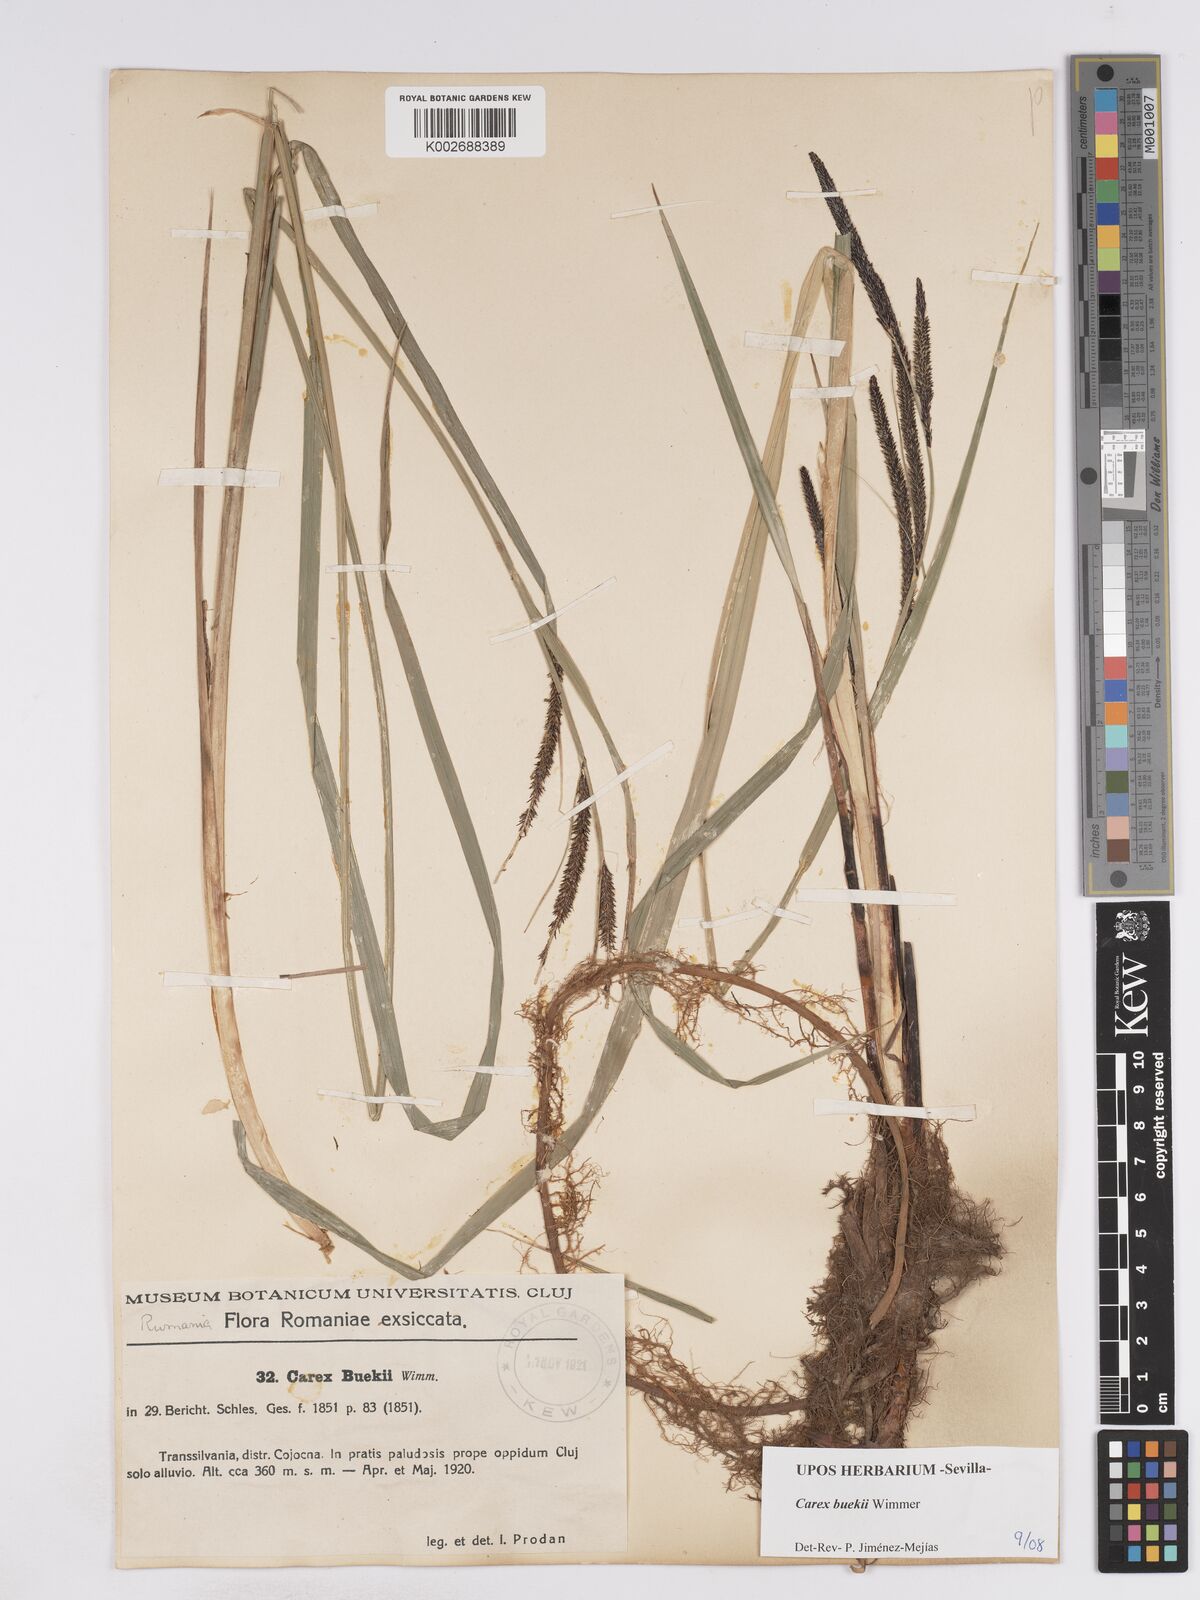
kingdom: Plantae
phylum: Tracheophyta
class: Liliopsida
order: Poales
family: Cyperaceae
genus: Carex
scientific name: Carex buekii
